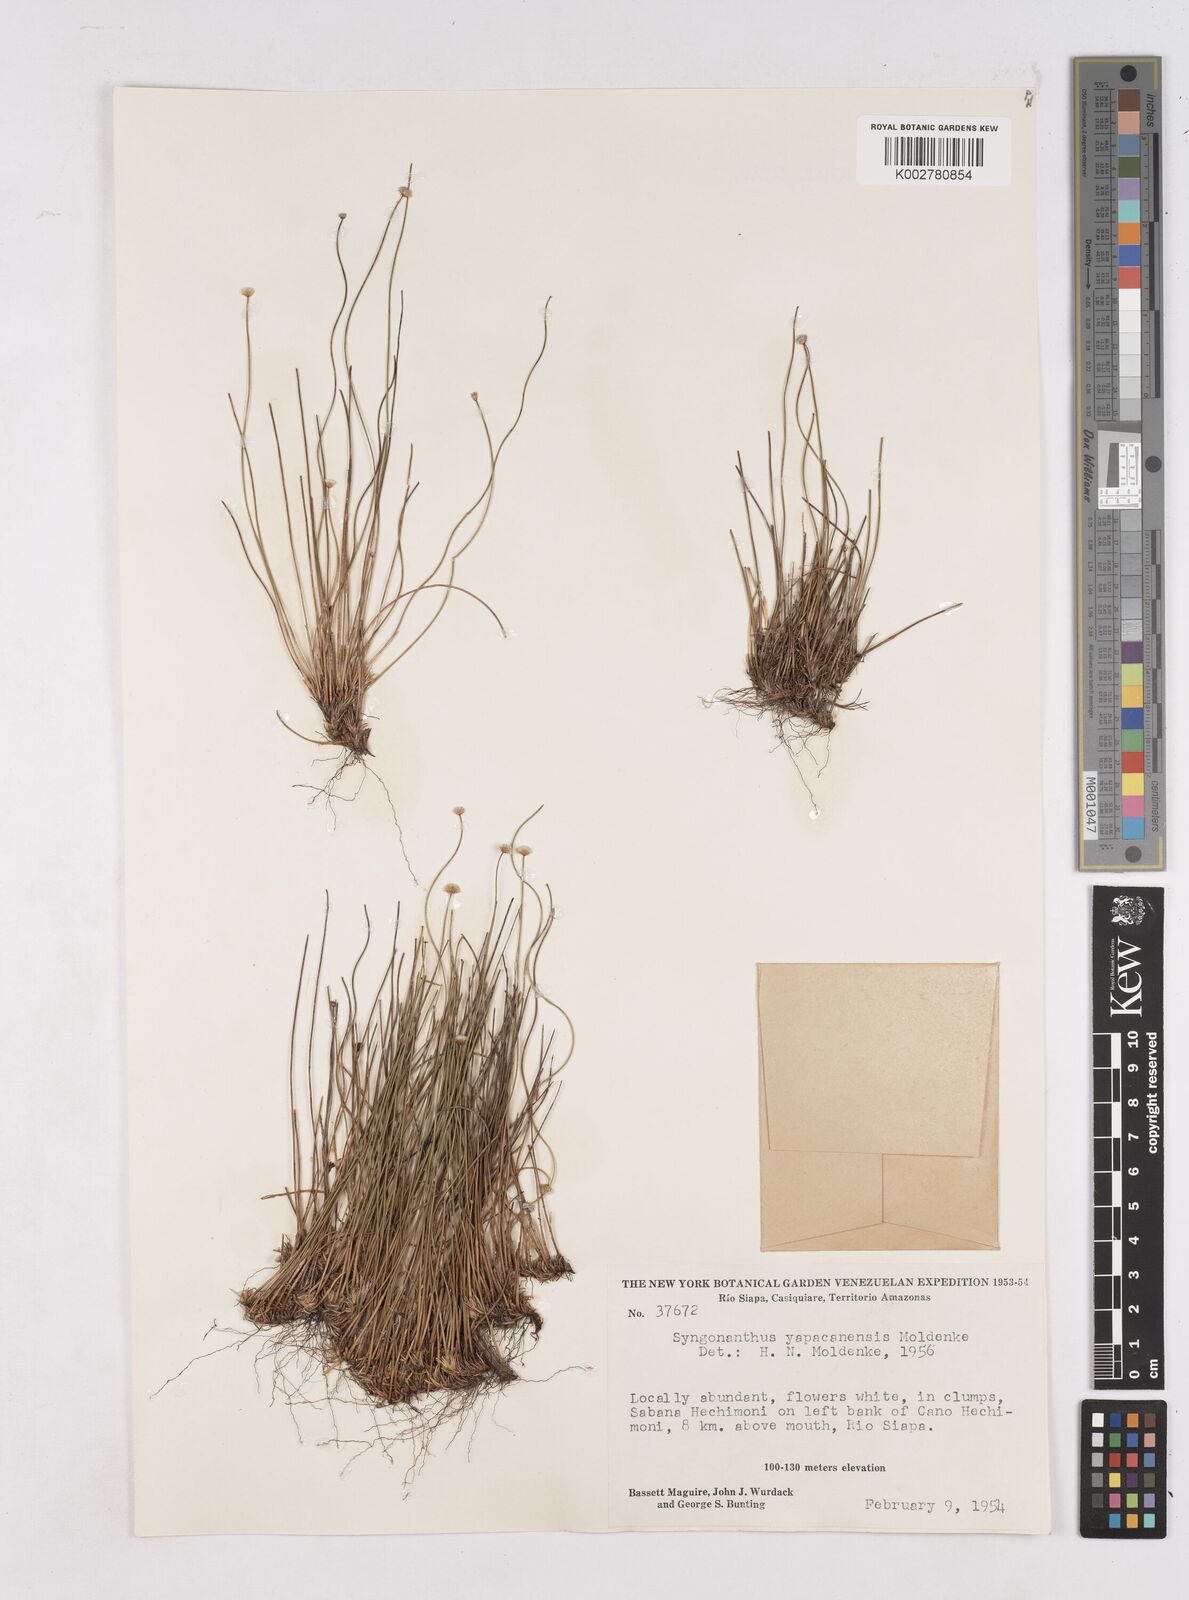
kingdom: Plantae
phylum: Tracheophyta
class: Liliopsida
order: Poales
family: Eriocaulaceae
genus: Paepalanthus
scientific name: Paepalanthus yapacanensis
